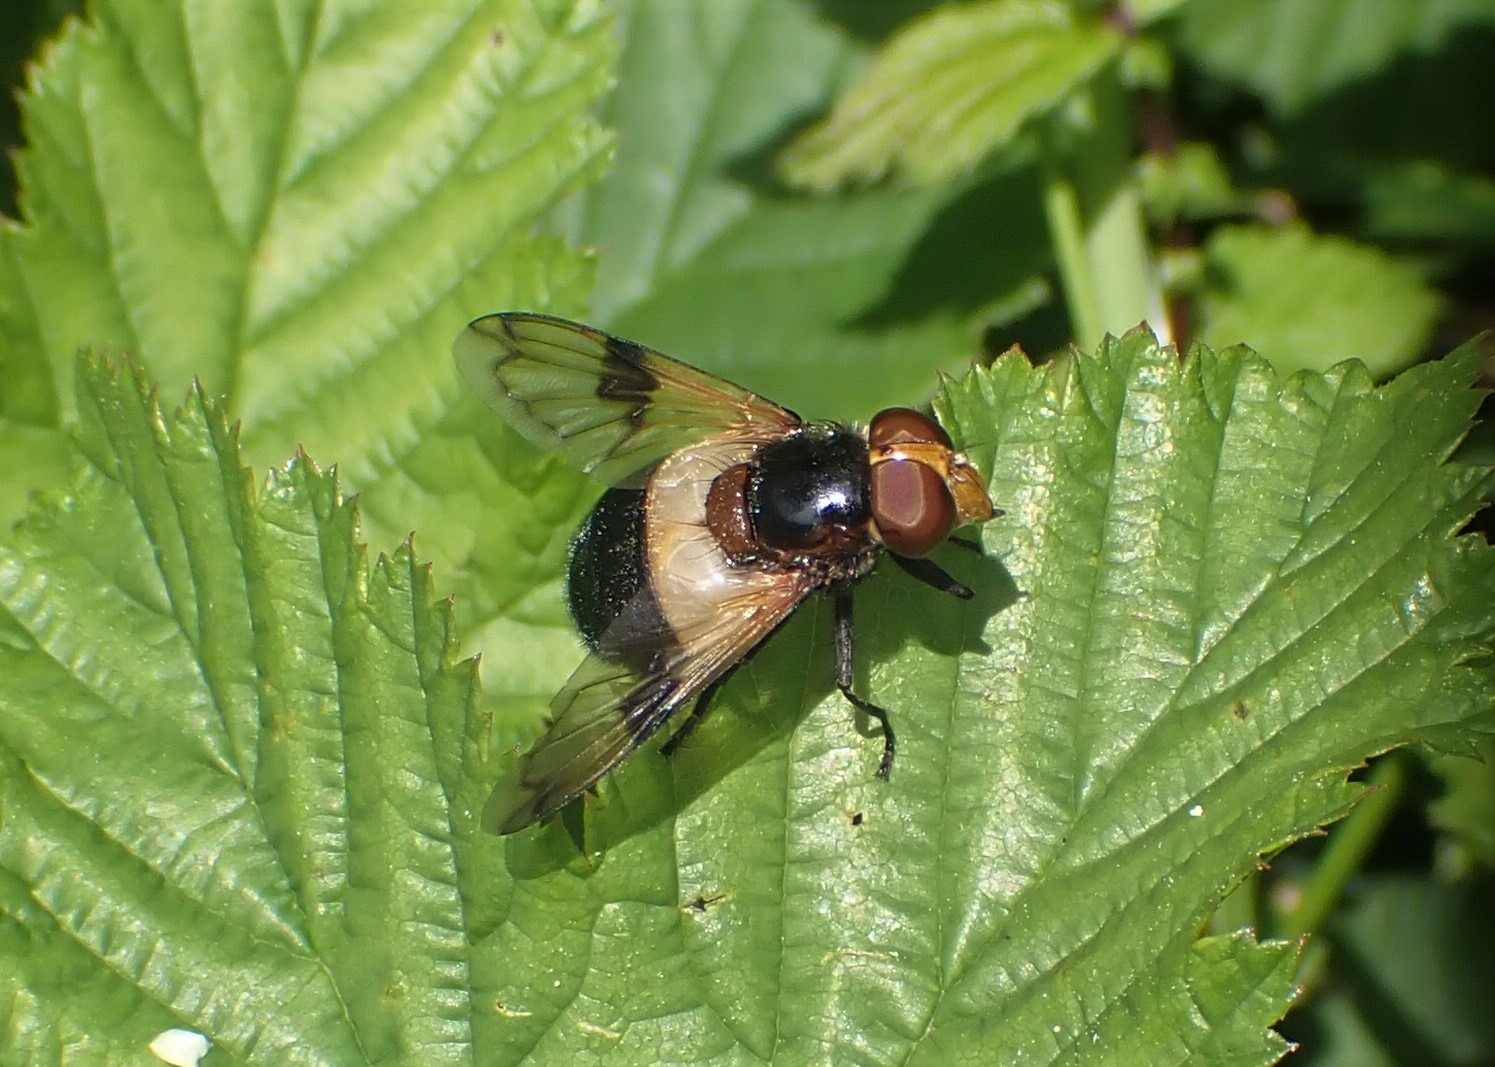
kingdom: Animalia
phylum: Arthropoda
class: Insecta
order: Diptera
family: Syrphidae
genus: Volucella
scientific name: Volucella pellucens
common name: Hvidbåndet humlesvirreflue
